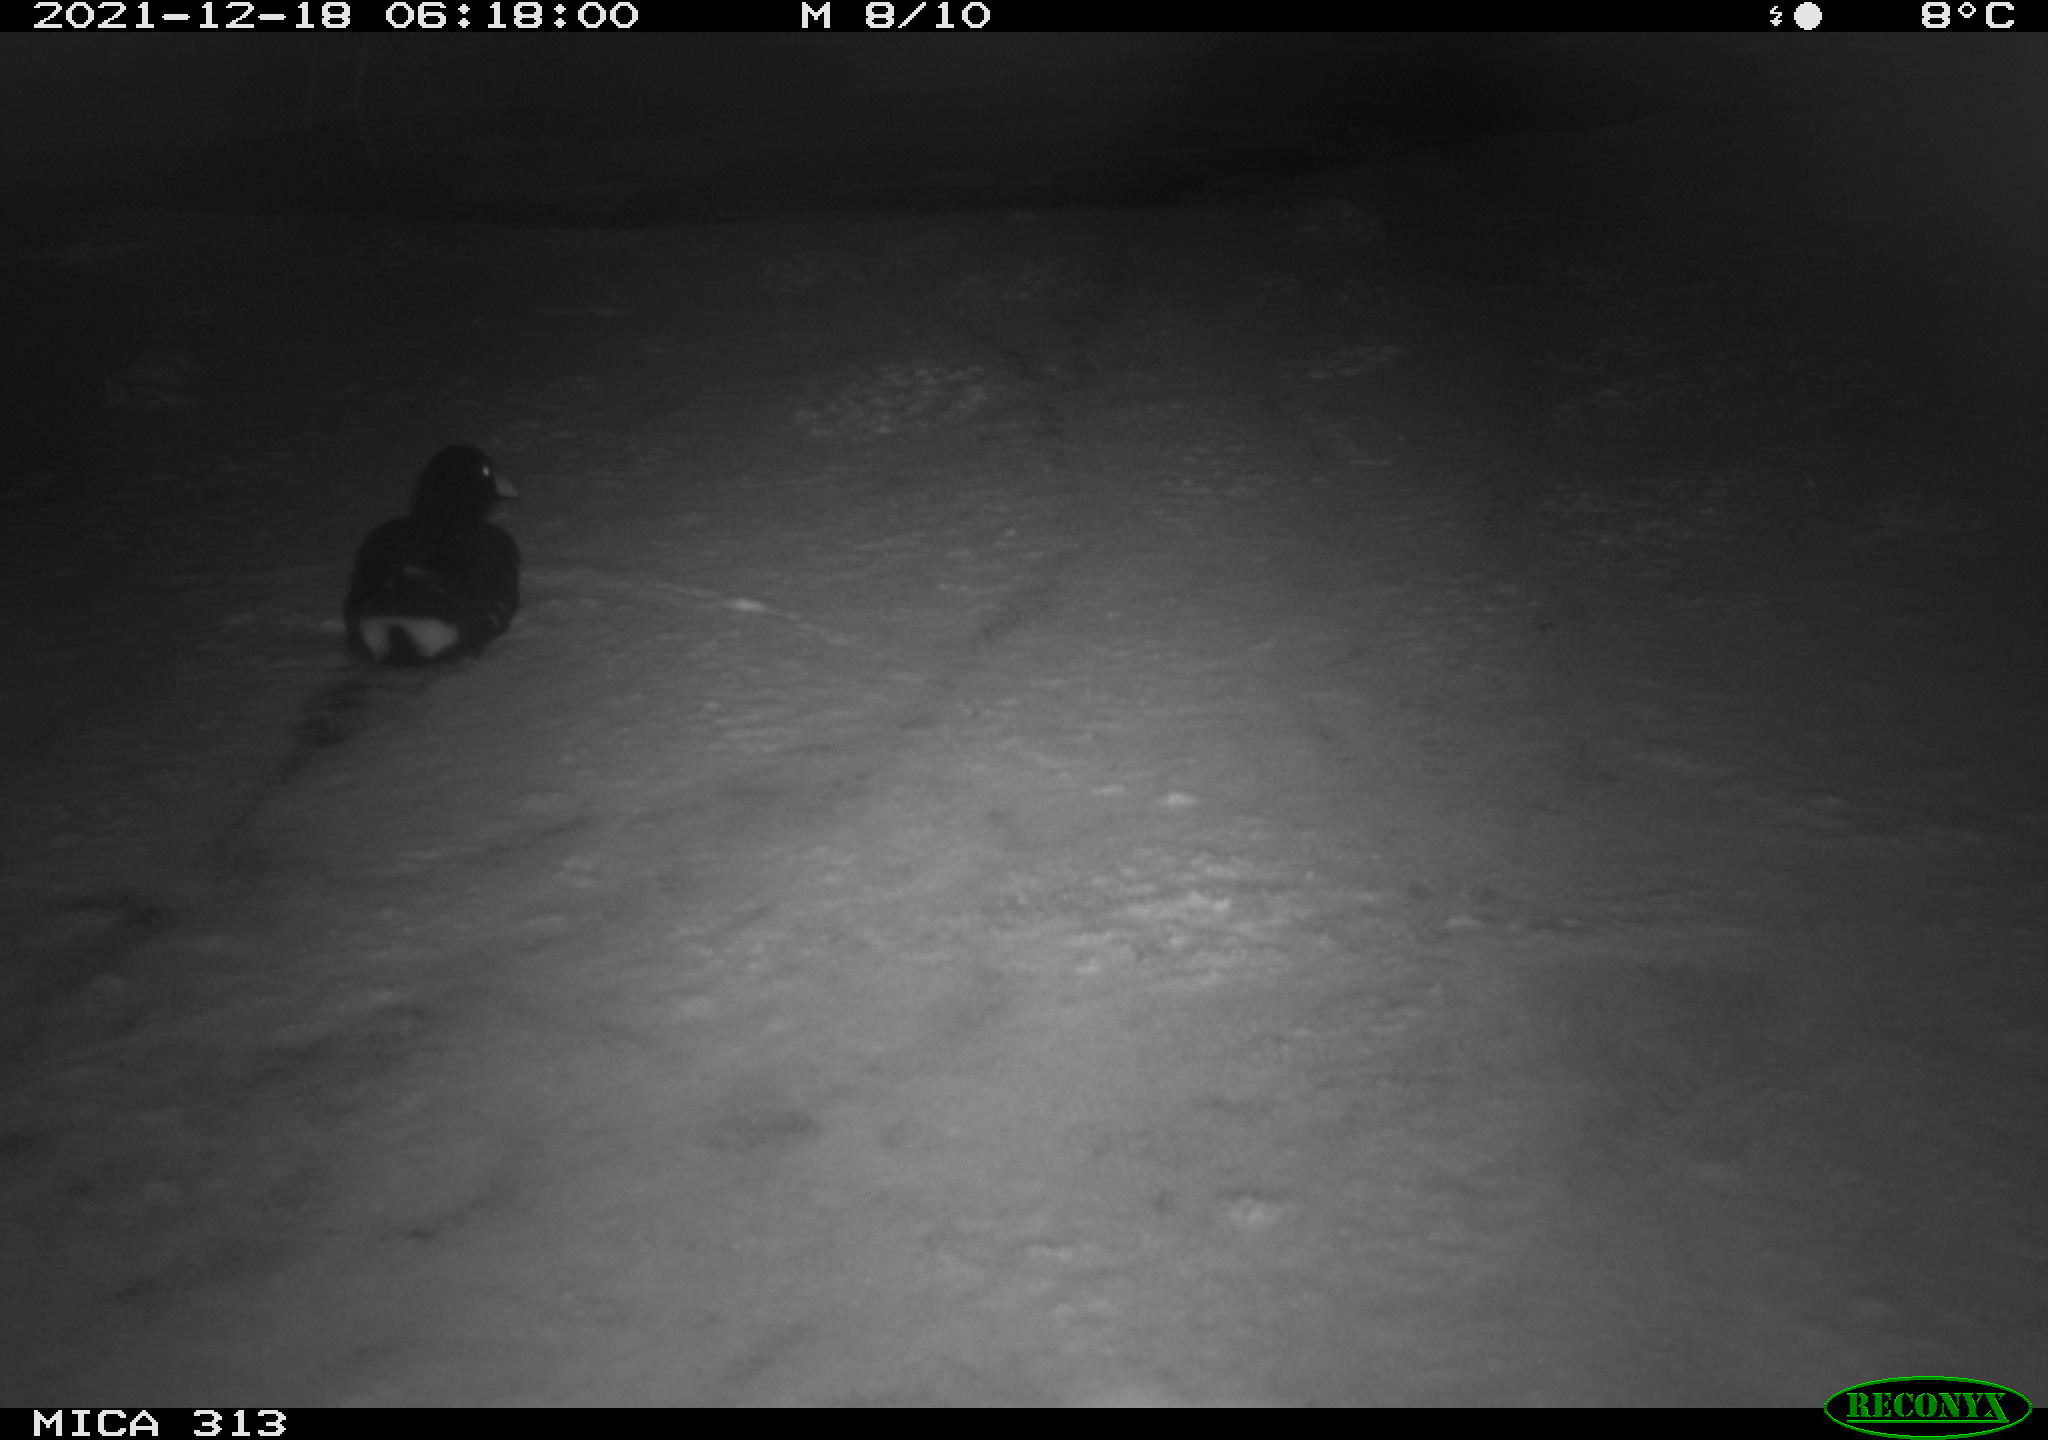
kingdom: Animalia
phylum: Chordata
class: Aves
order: Gruiformes
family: Rallidae
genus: Gallinula
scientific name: Gallinula chloropus
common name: Common moorhen
